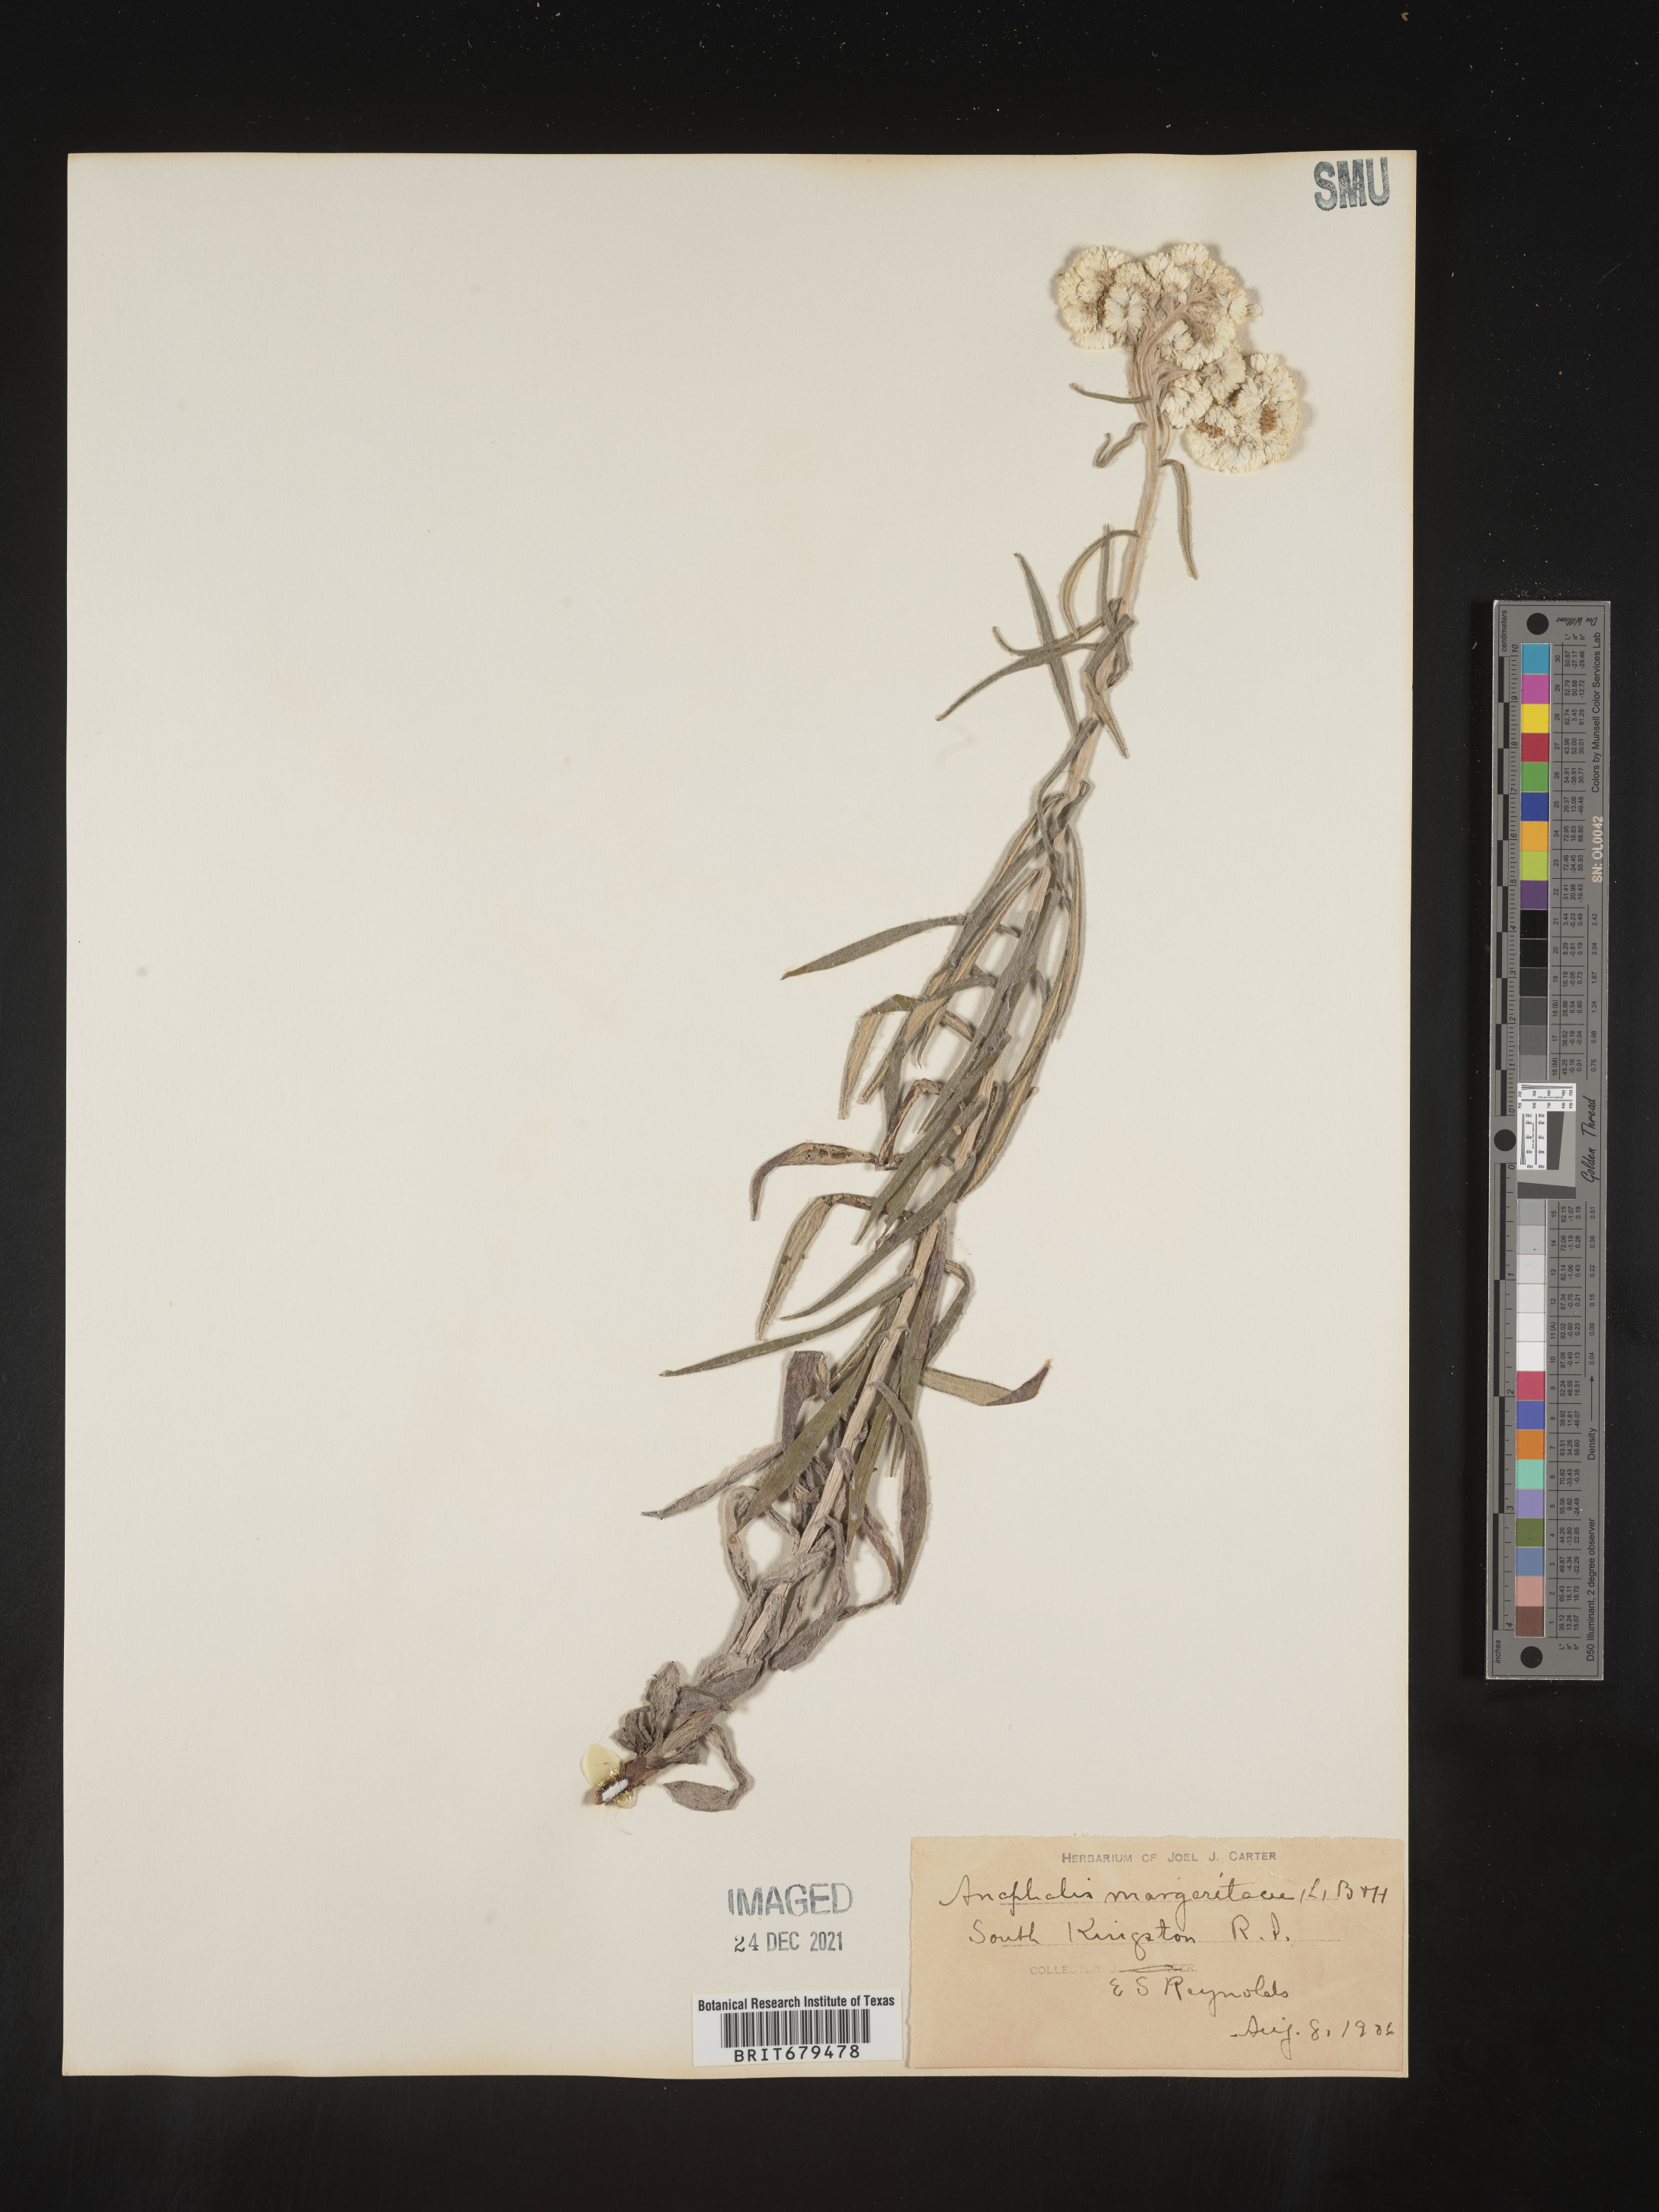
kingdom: Plantae
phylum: Tracheophyta
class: Magnoliopsida
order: Asterales
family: Asteraceae
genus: Anaphalis
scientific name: Anaphalis margaritacea
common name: Pearly everlasting
